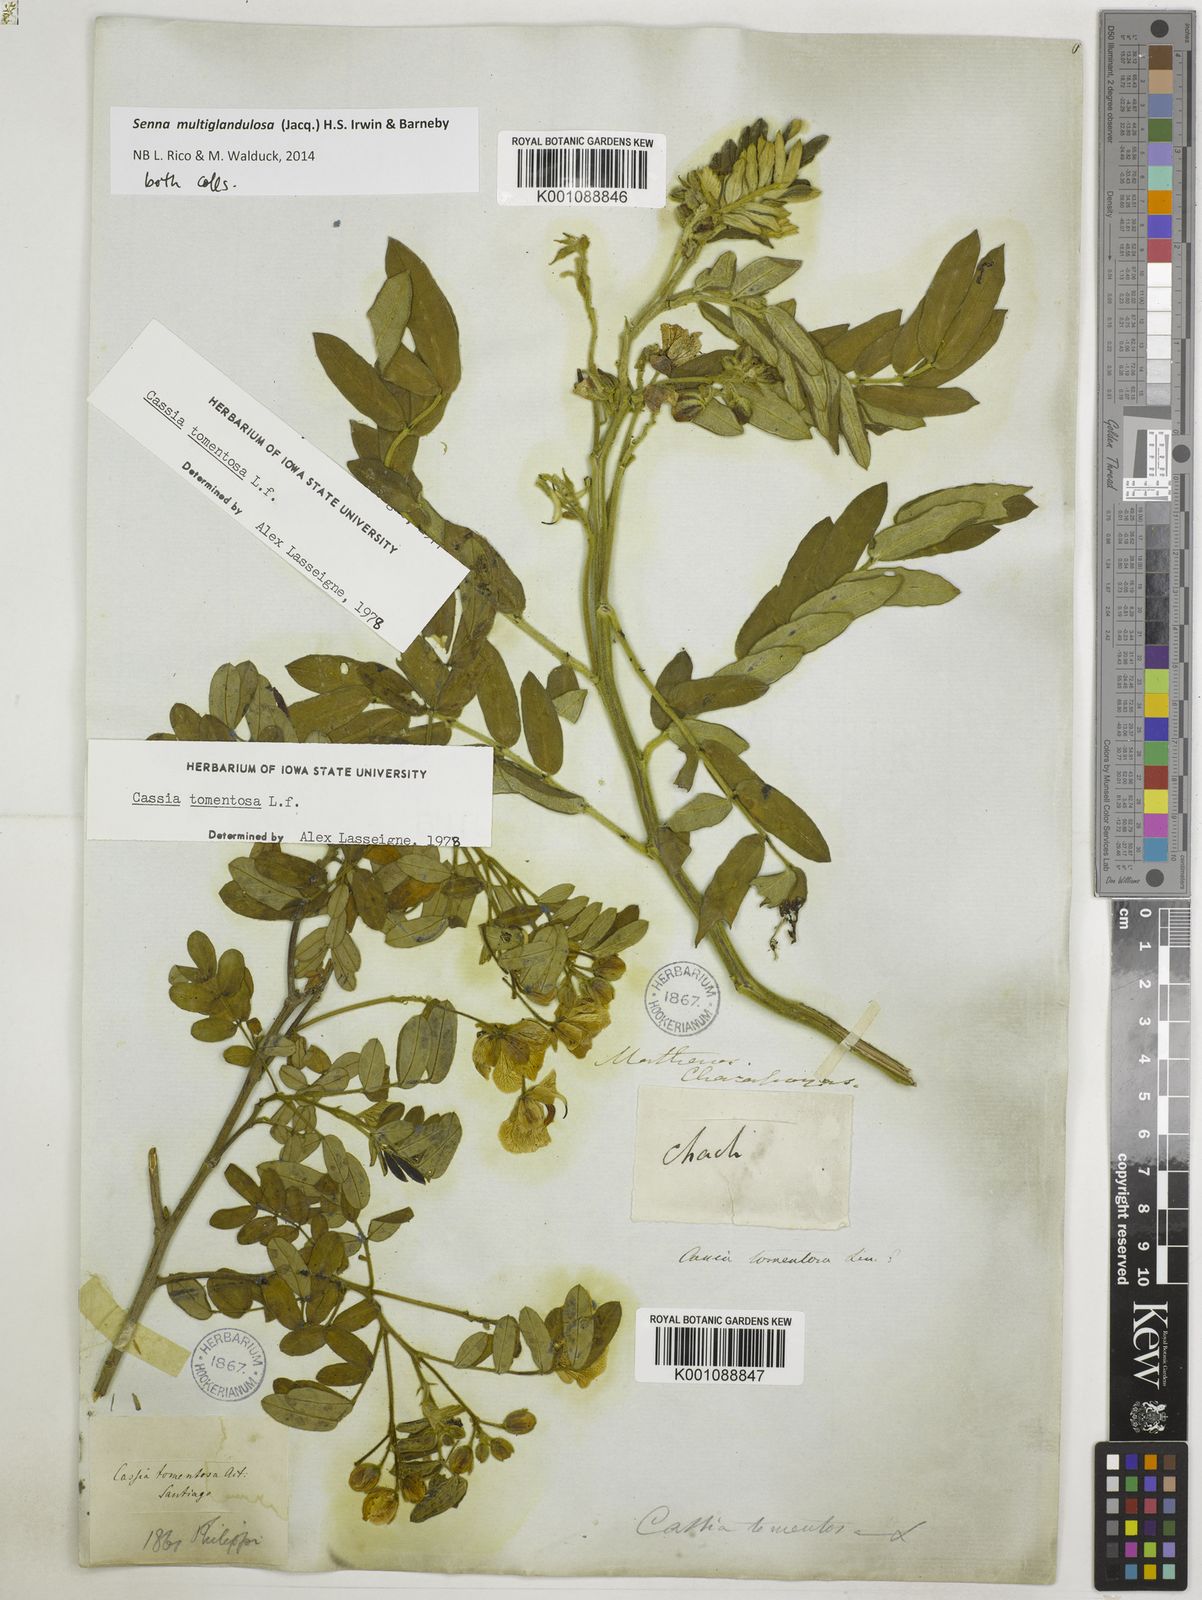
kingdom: Plantae
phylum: Tracheophyta
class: Magnoliopsida
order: Fabales
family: Fabaceae
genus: Senna
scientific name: Senna multiglandulosa
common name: Glandular senna
